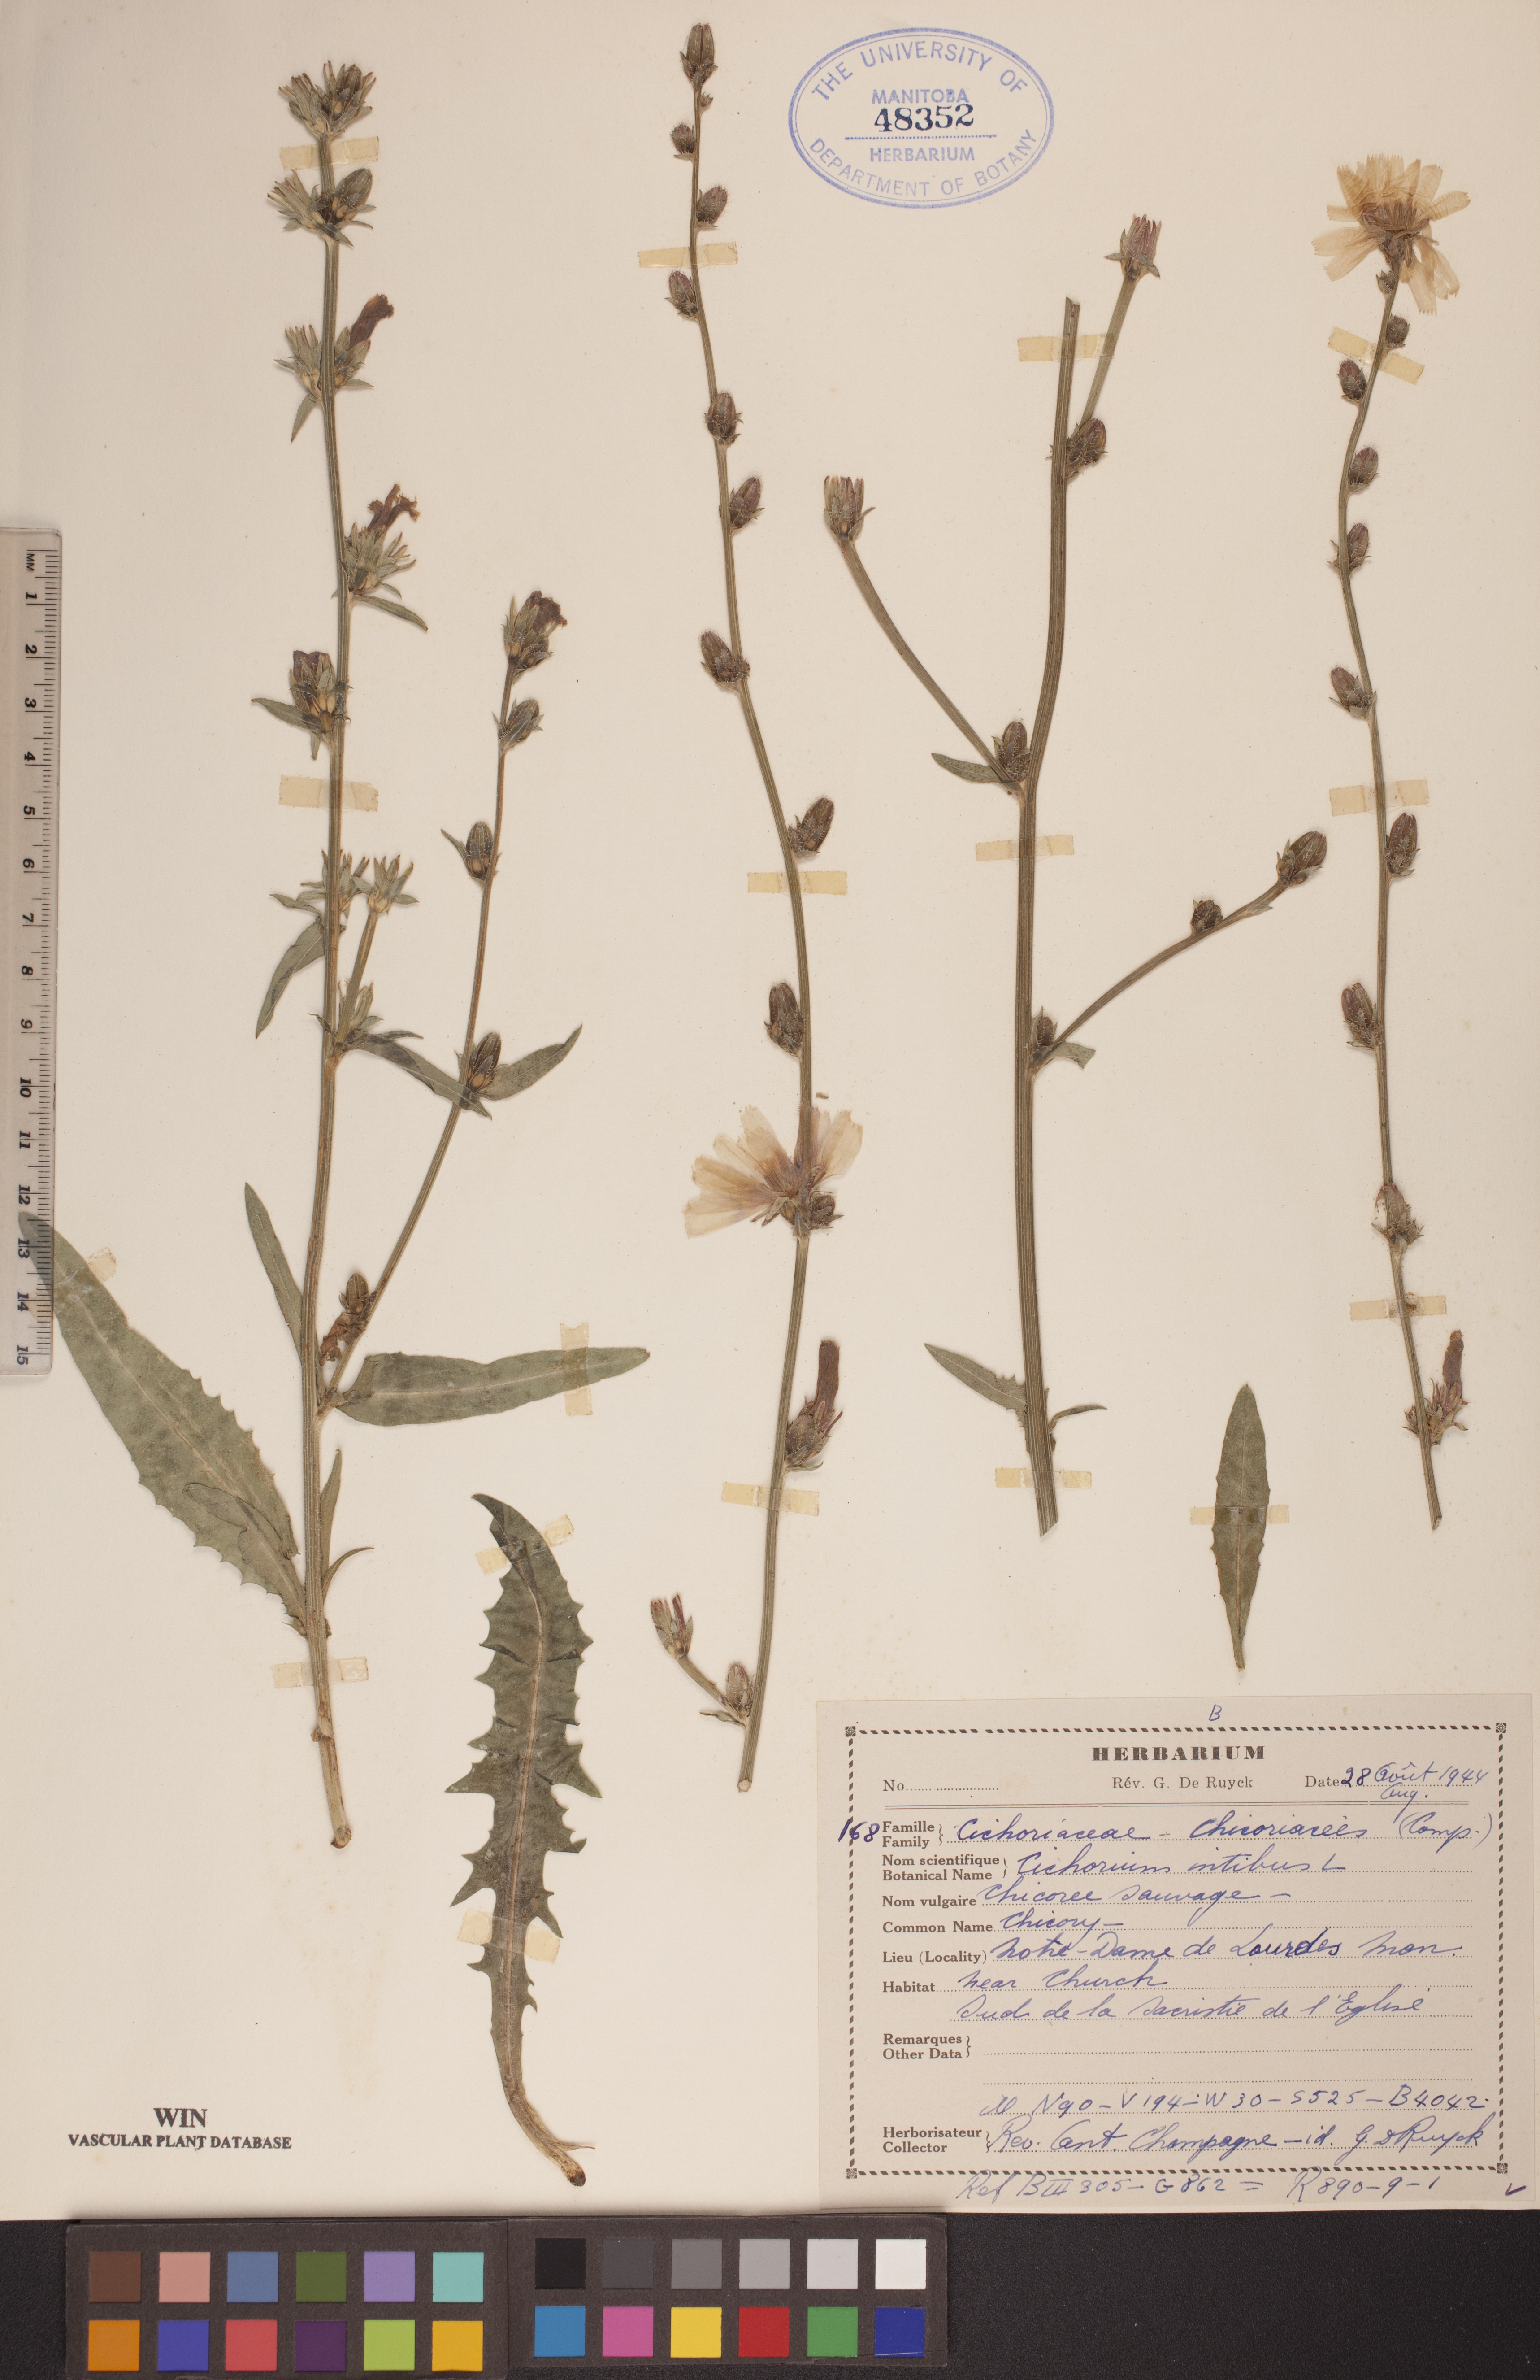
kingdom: Plantae
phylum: Tracheophyta
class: Magnoliopsida
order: Asterales
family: Asteraceae
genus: Cichorium
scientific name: Cichorium intybus
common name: Chicory
